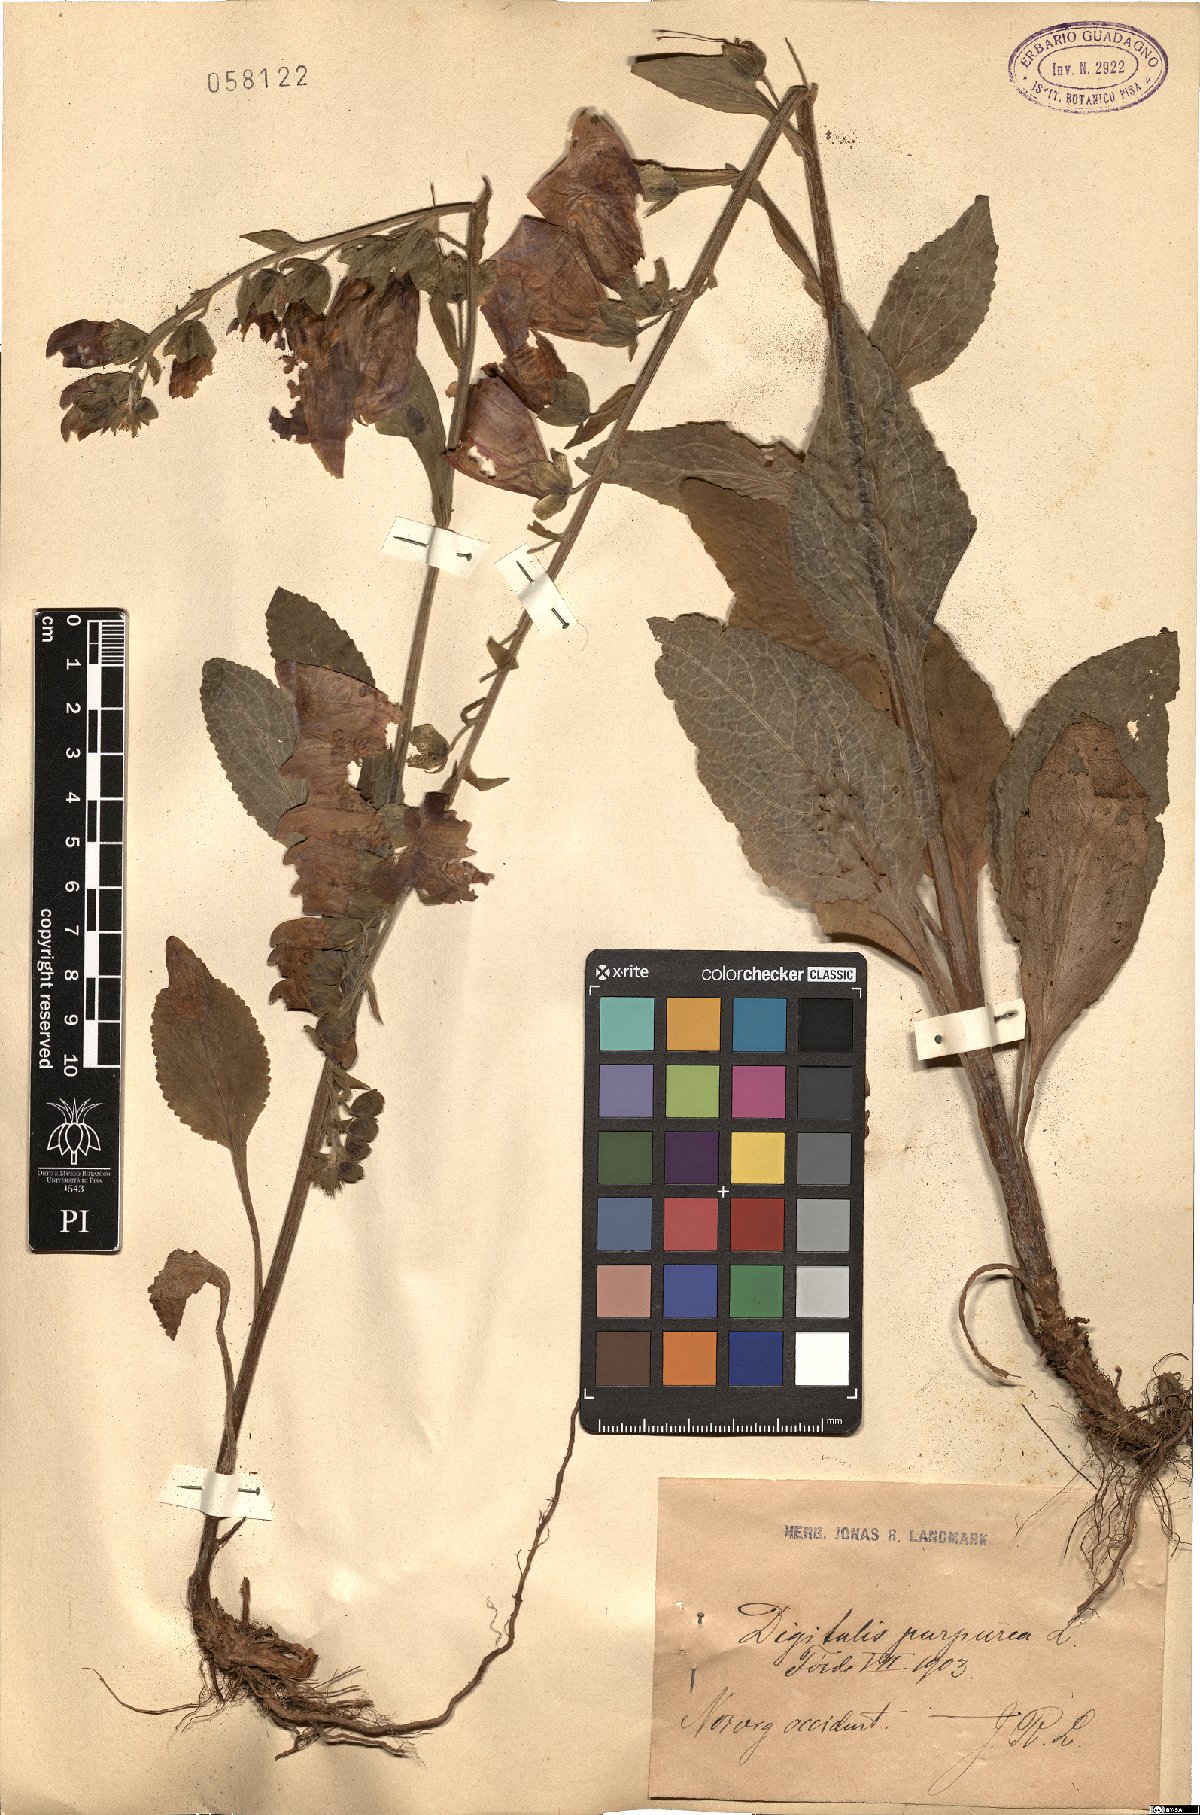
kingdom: Plantae
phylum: Tracheophyta
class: Magnoliopsida
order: Lamiales
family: Plantaginaceae
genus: Digitalis
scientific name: Digitalis purpurea
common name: Foxglove
